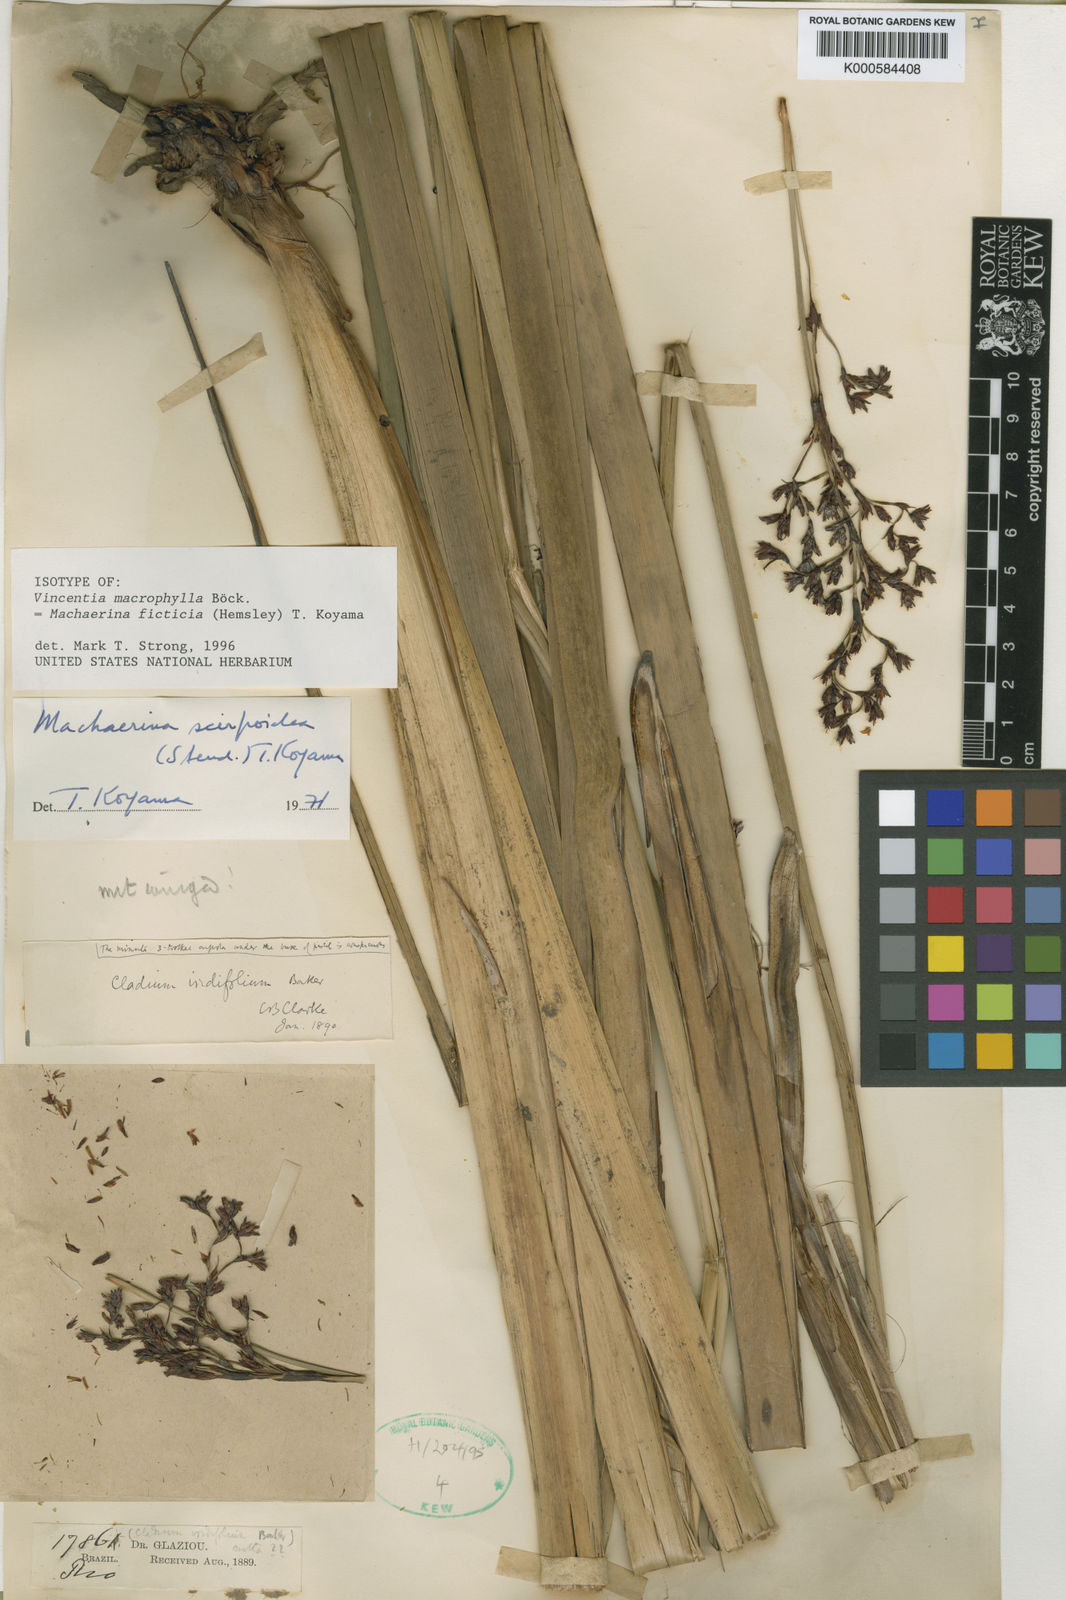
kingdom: Plantae
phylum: Tracheophyta
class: Liliopsida
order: Poales
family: Cyperaceae
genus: Machaerina
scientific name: Machaerina ficticia
